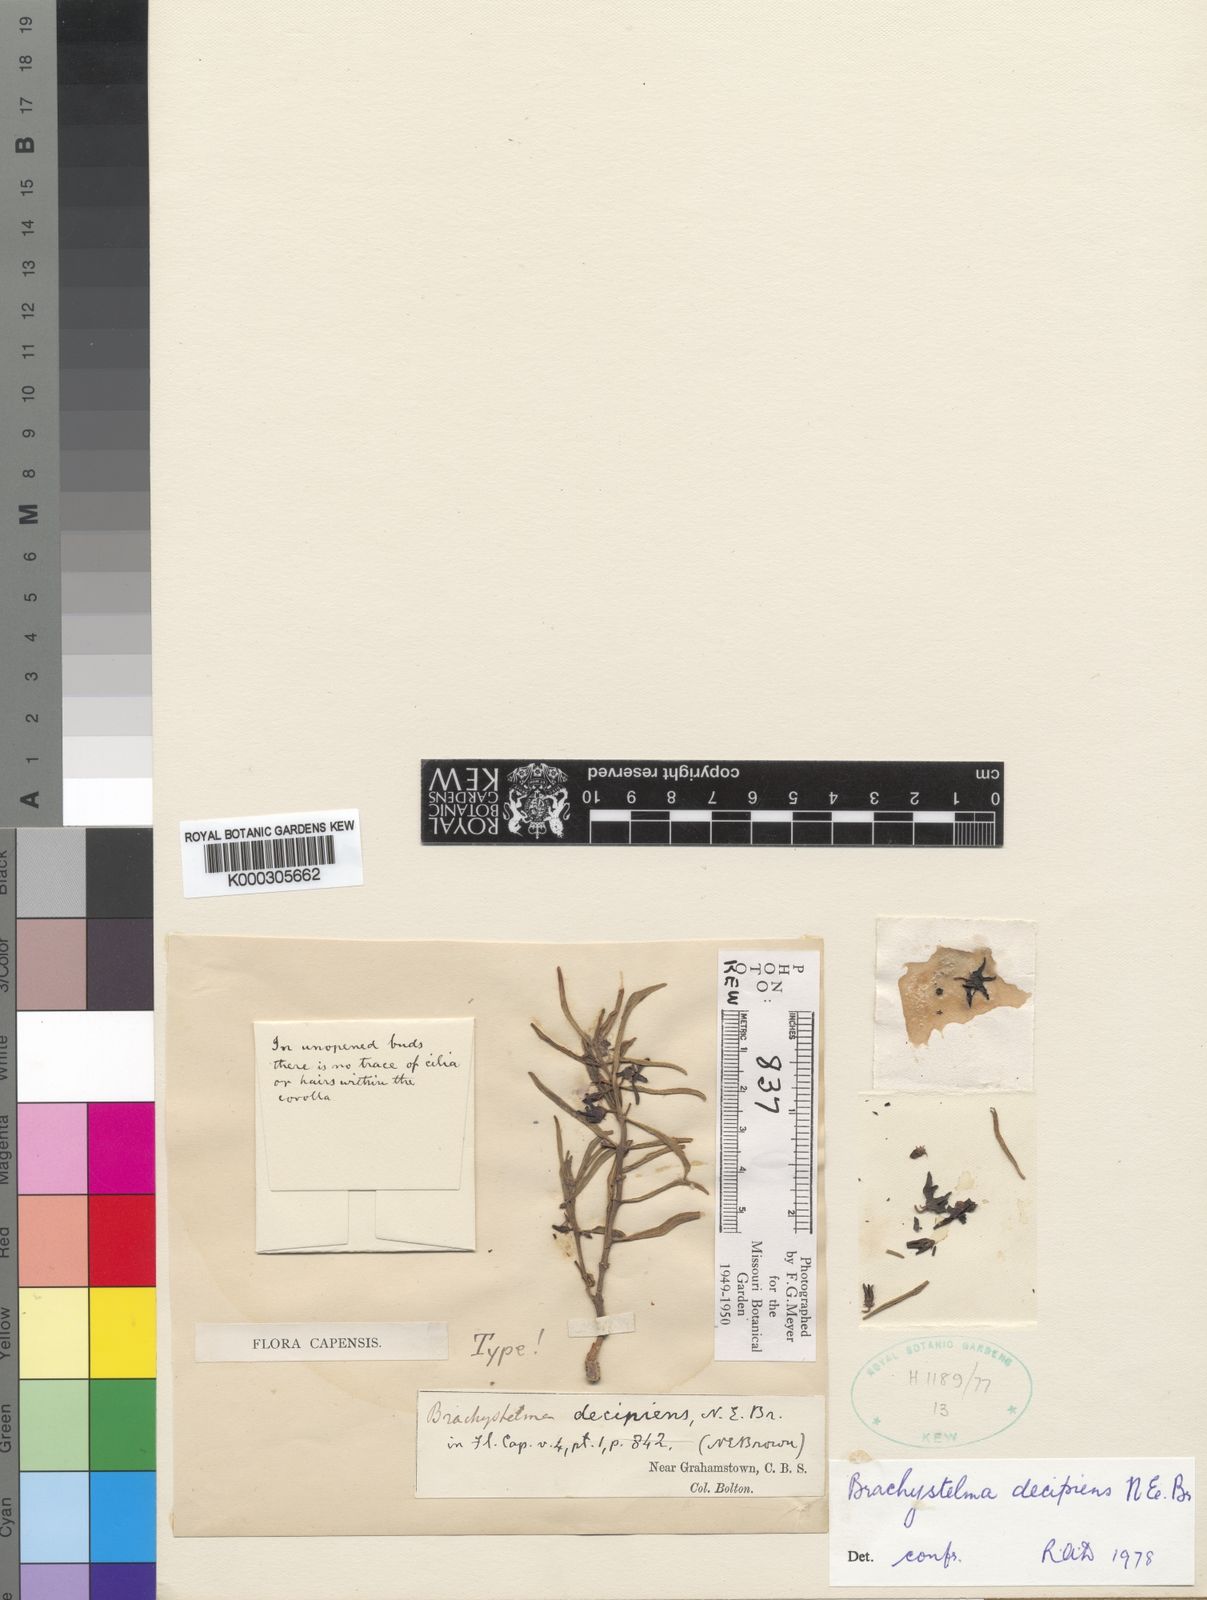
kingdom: Plantae
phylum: Tracheophyta
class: Magnoliopsida
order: Gentianales
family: Apocynaceae
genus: Ceropegia
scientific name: Ceropegia decipientiflora
